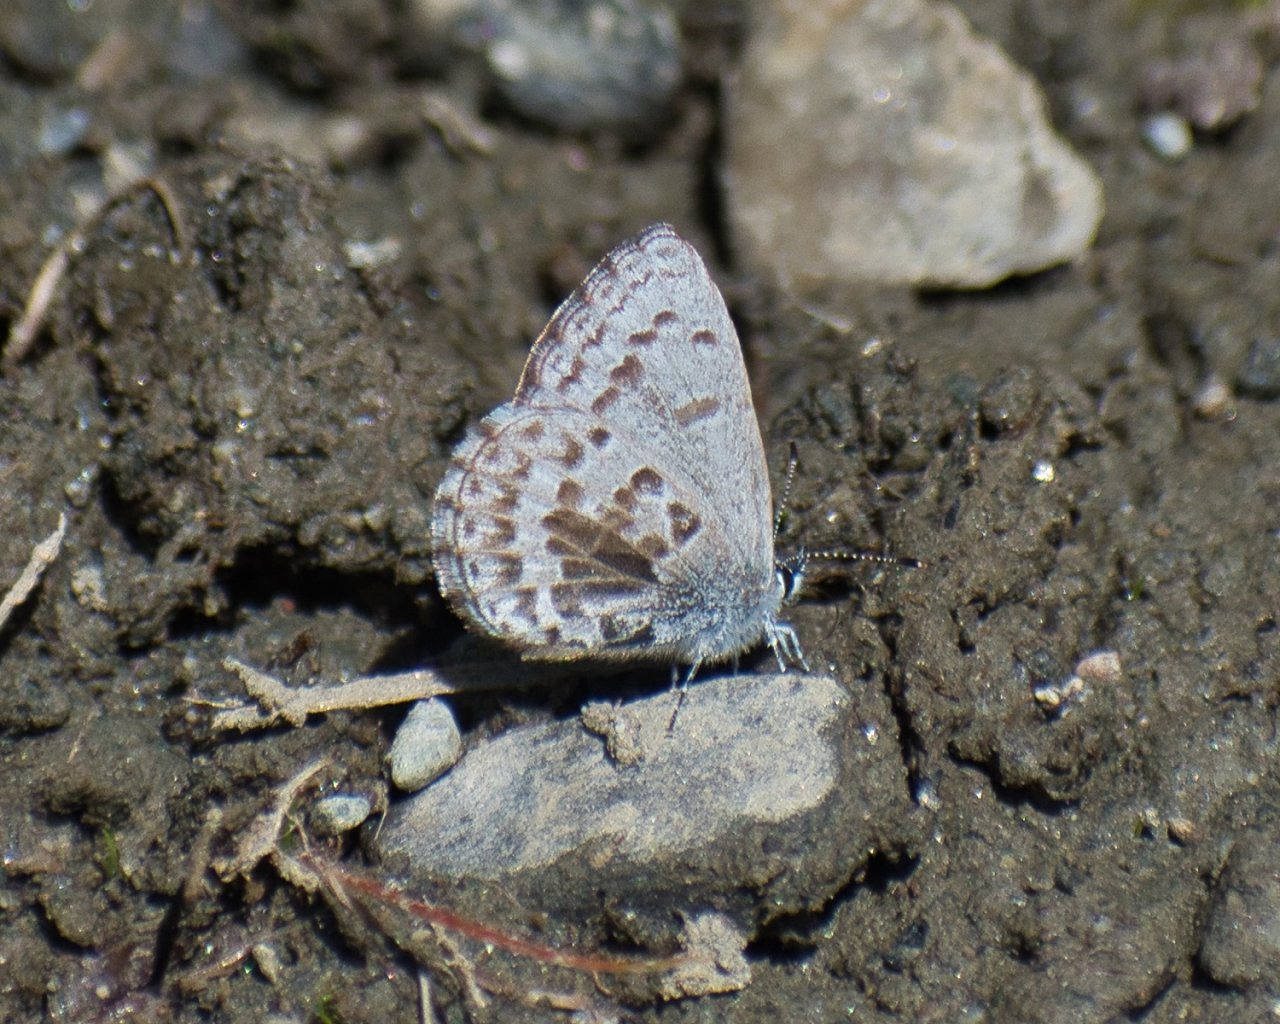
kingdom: Animalia
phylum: Arthropoda
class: Insecta
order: Lepidoptera
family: Lycaenidae
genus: Celastrina
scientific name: Celastrina
